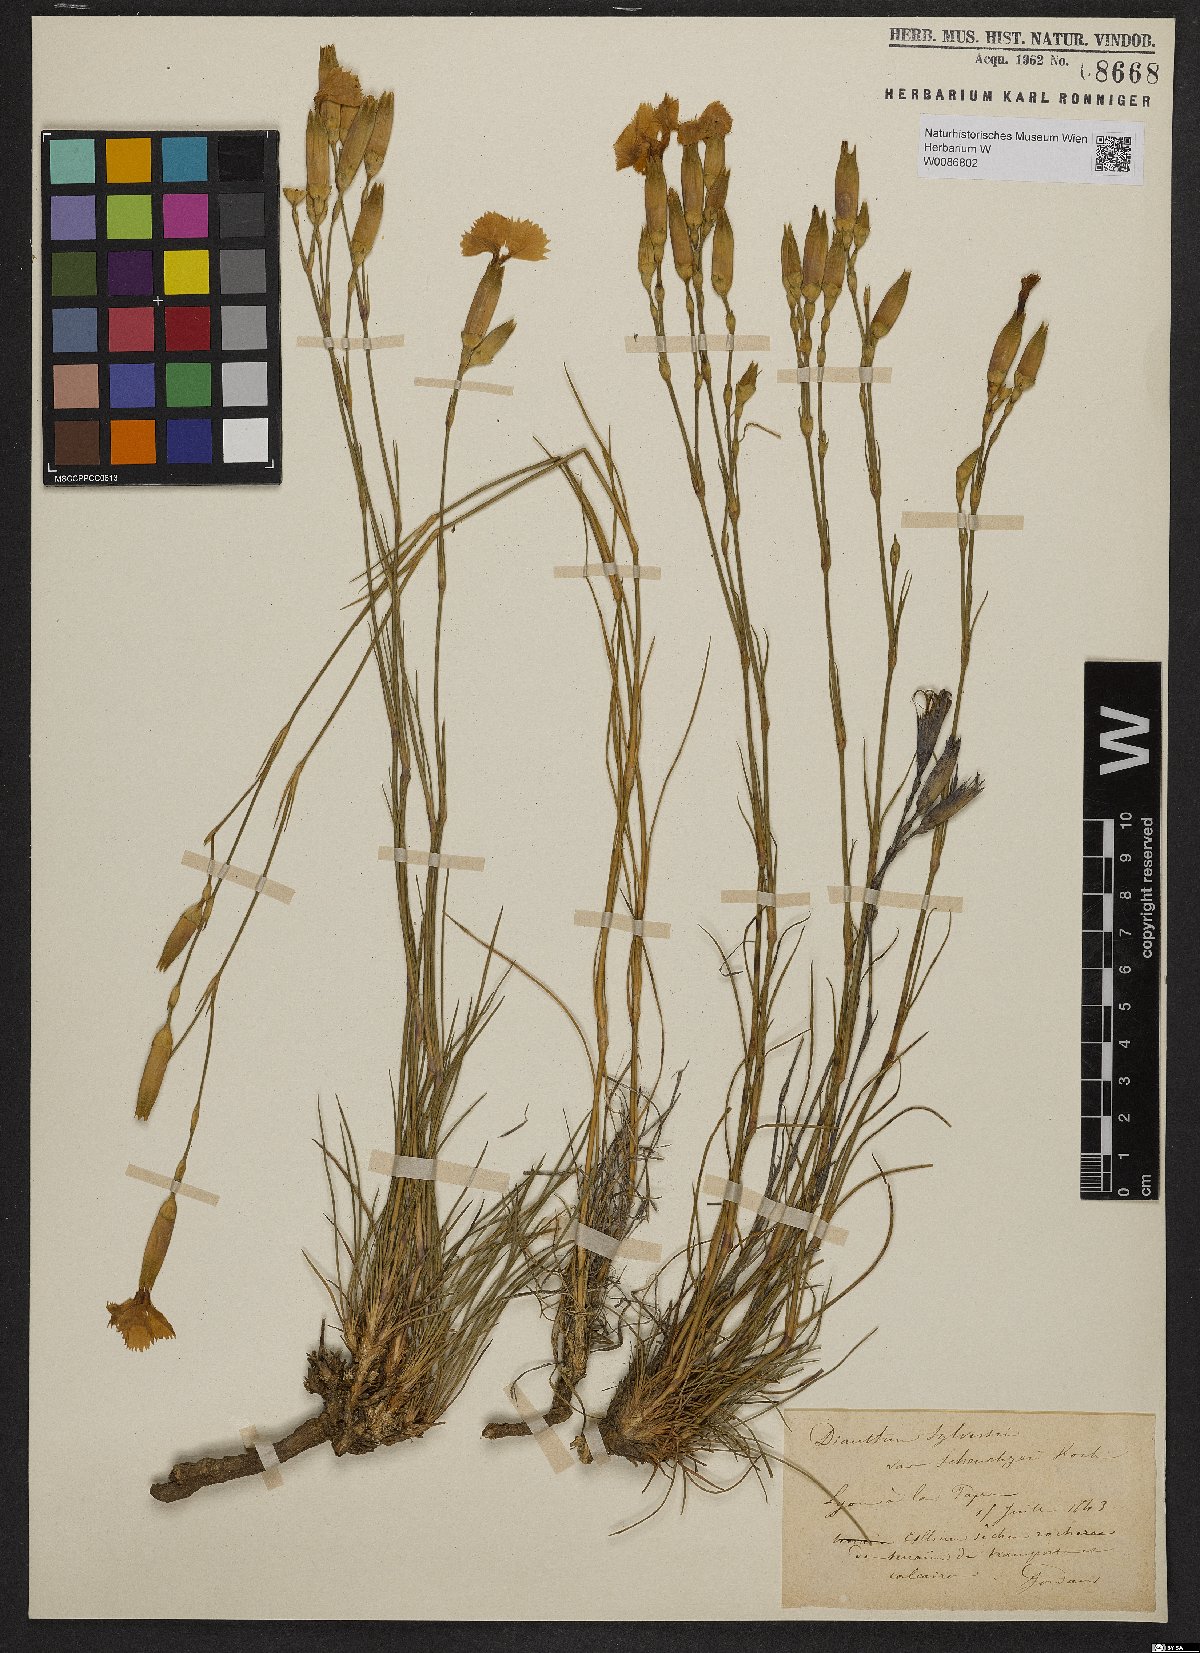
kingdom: Plantae
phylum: Tracheophyta
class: Magnoliopsida
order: Caryophyllales
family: Caryophyllaceae
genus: Dianthus
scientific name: Dianthus sylvestris
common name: Wood pink
